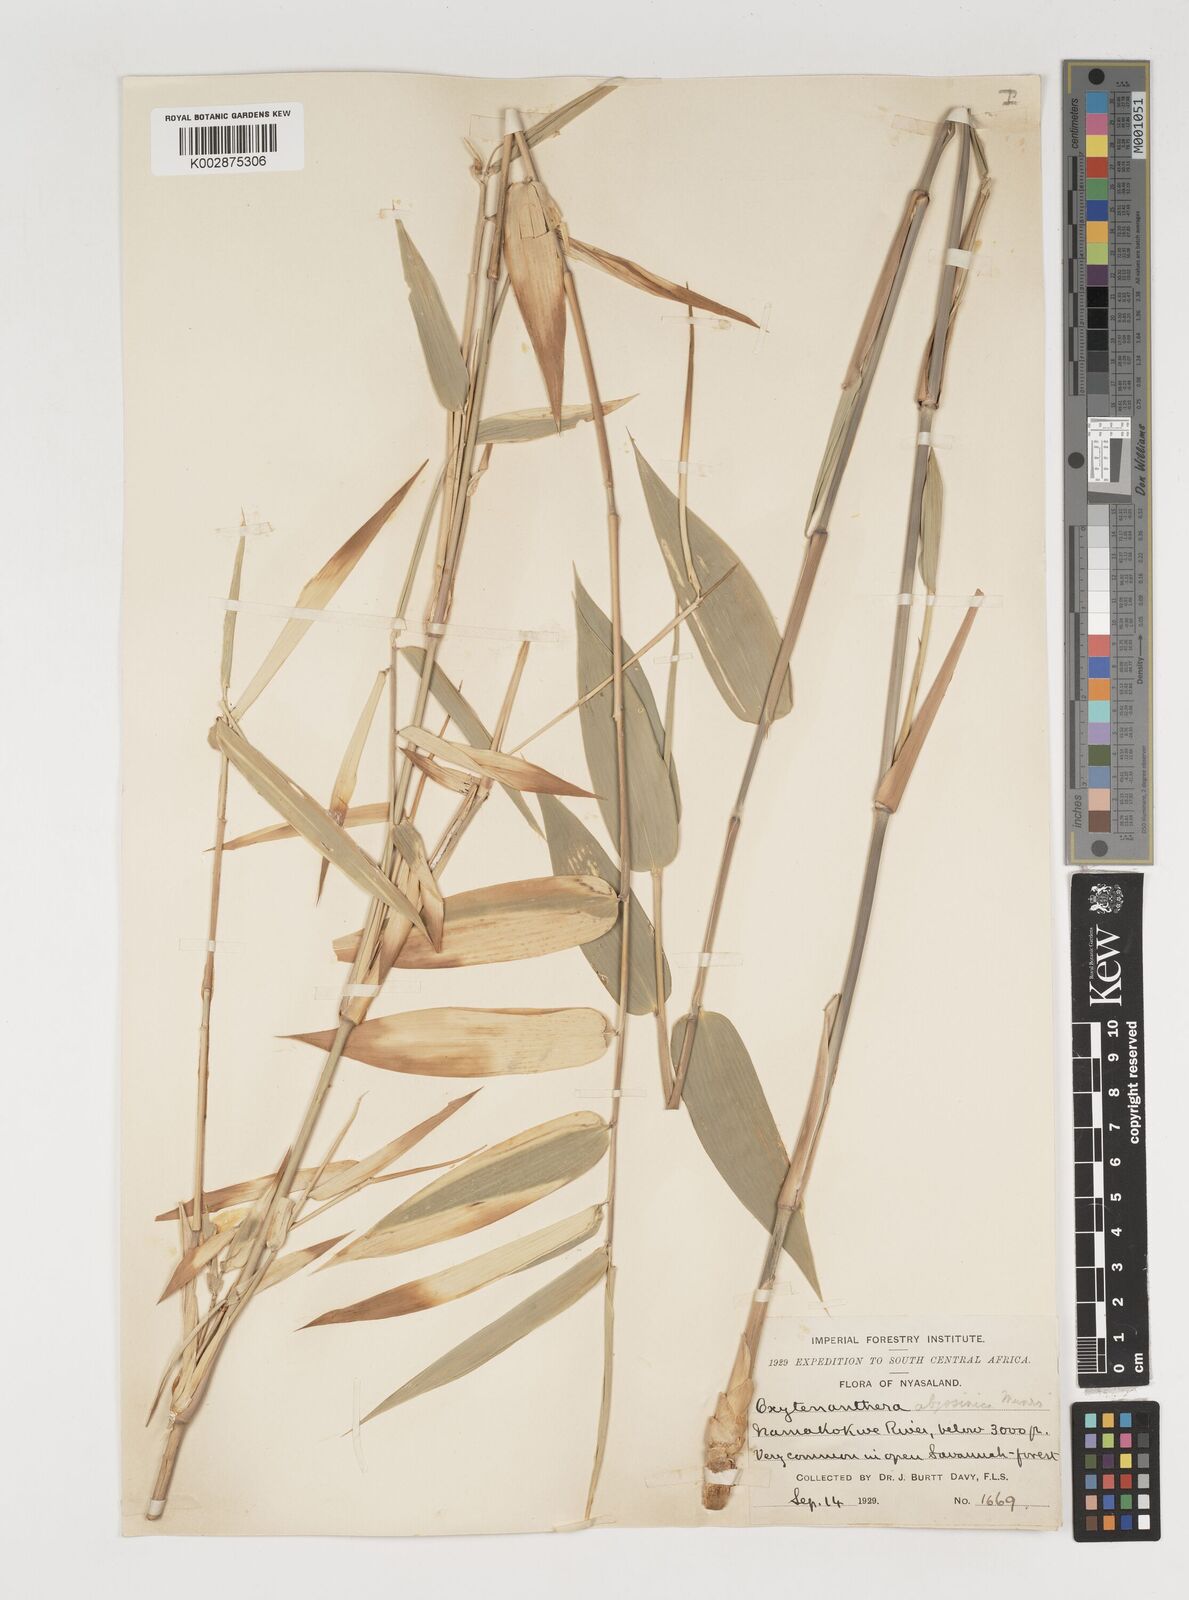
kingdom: Plantae
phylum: Tracheophyta
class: Liliopsida
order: Poales
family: Poaceae
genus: Oxytenanthera
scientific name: Oxytenanthera abyssinica
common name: Wine bamboo
